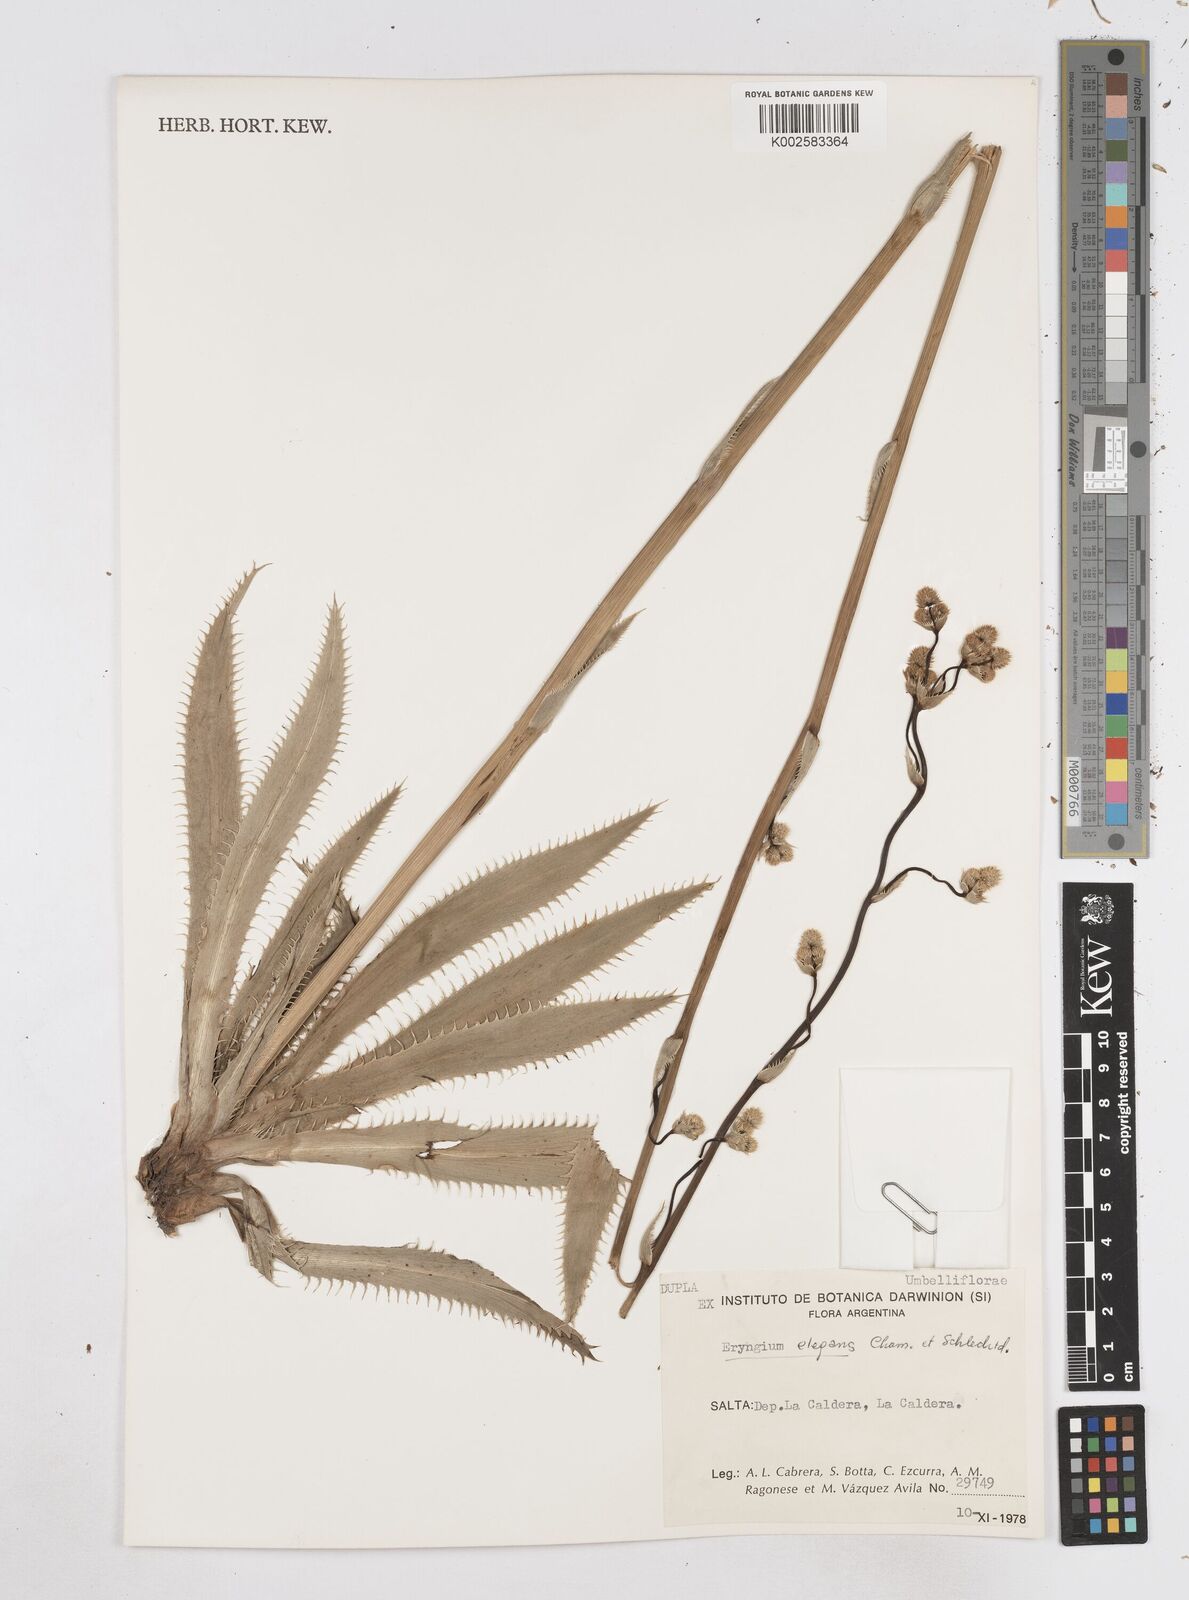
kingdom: Plantae
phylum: Tracheophyta
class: Magnoliopsida
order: Apiales
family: Apiaceae
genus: Eryngium
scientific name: Eryngium elegans
